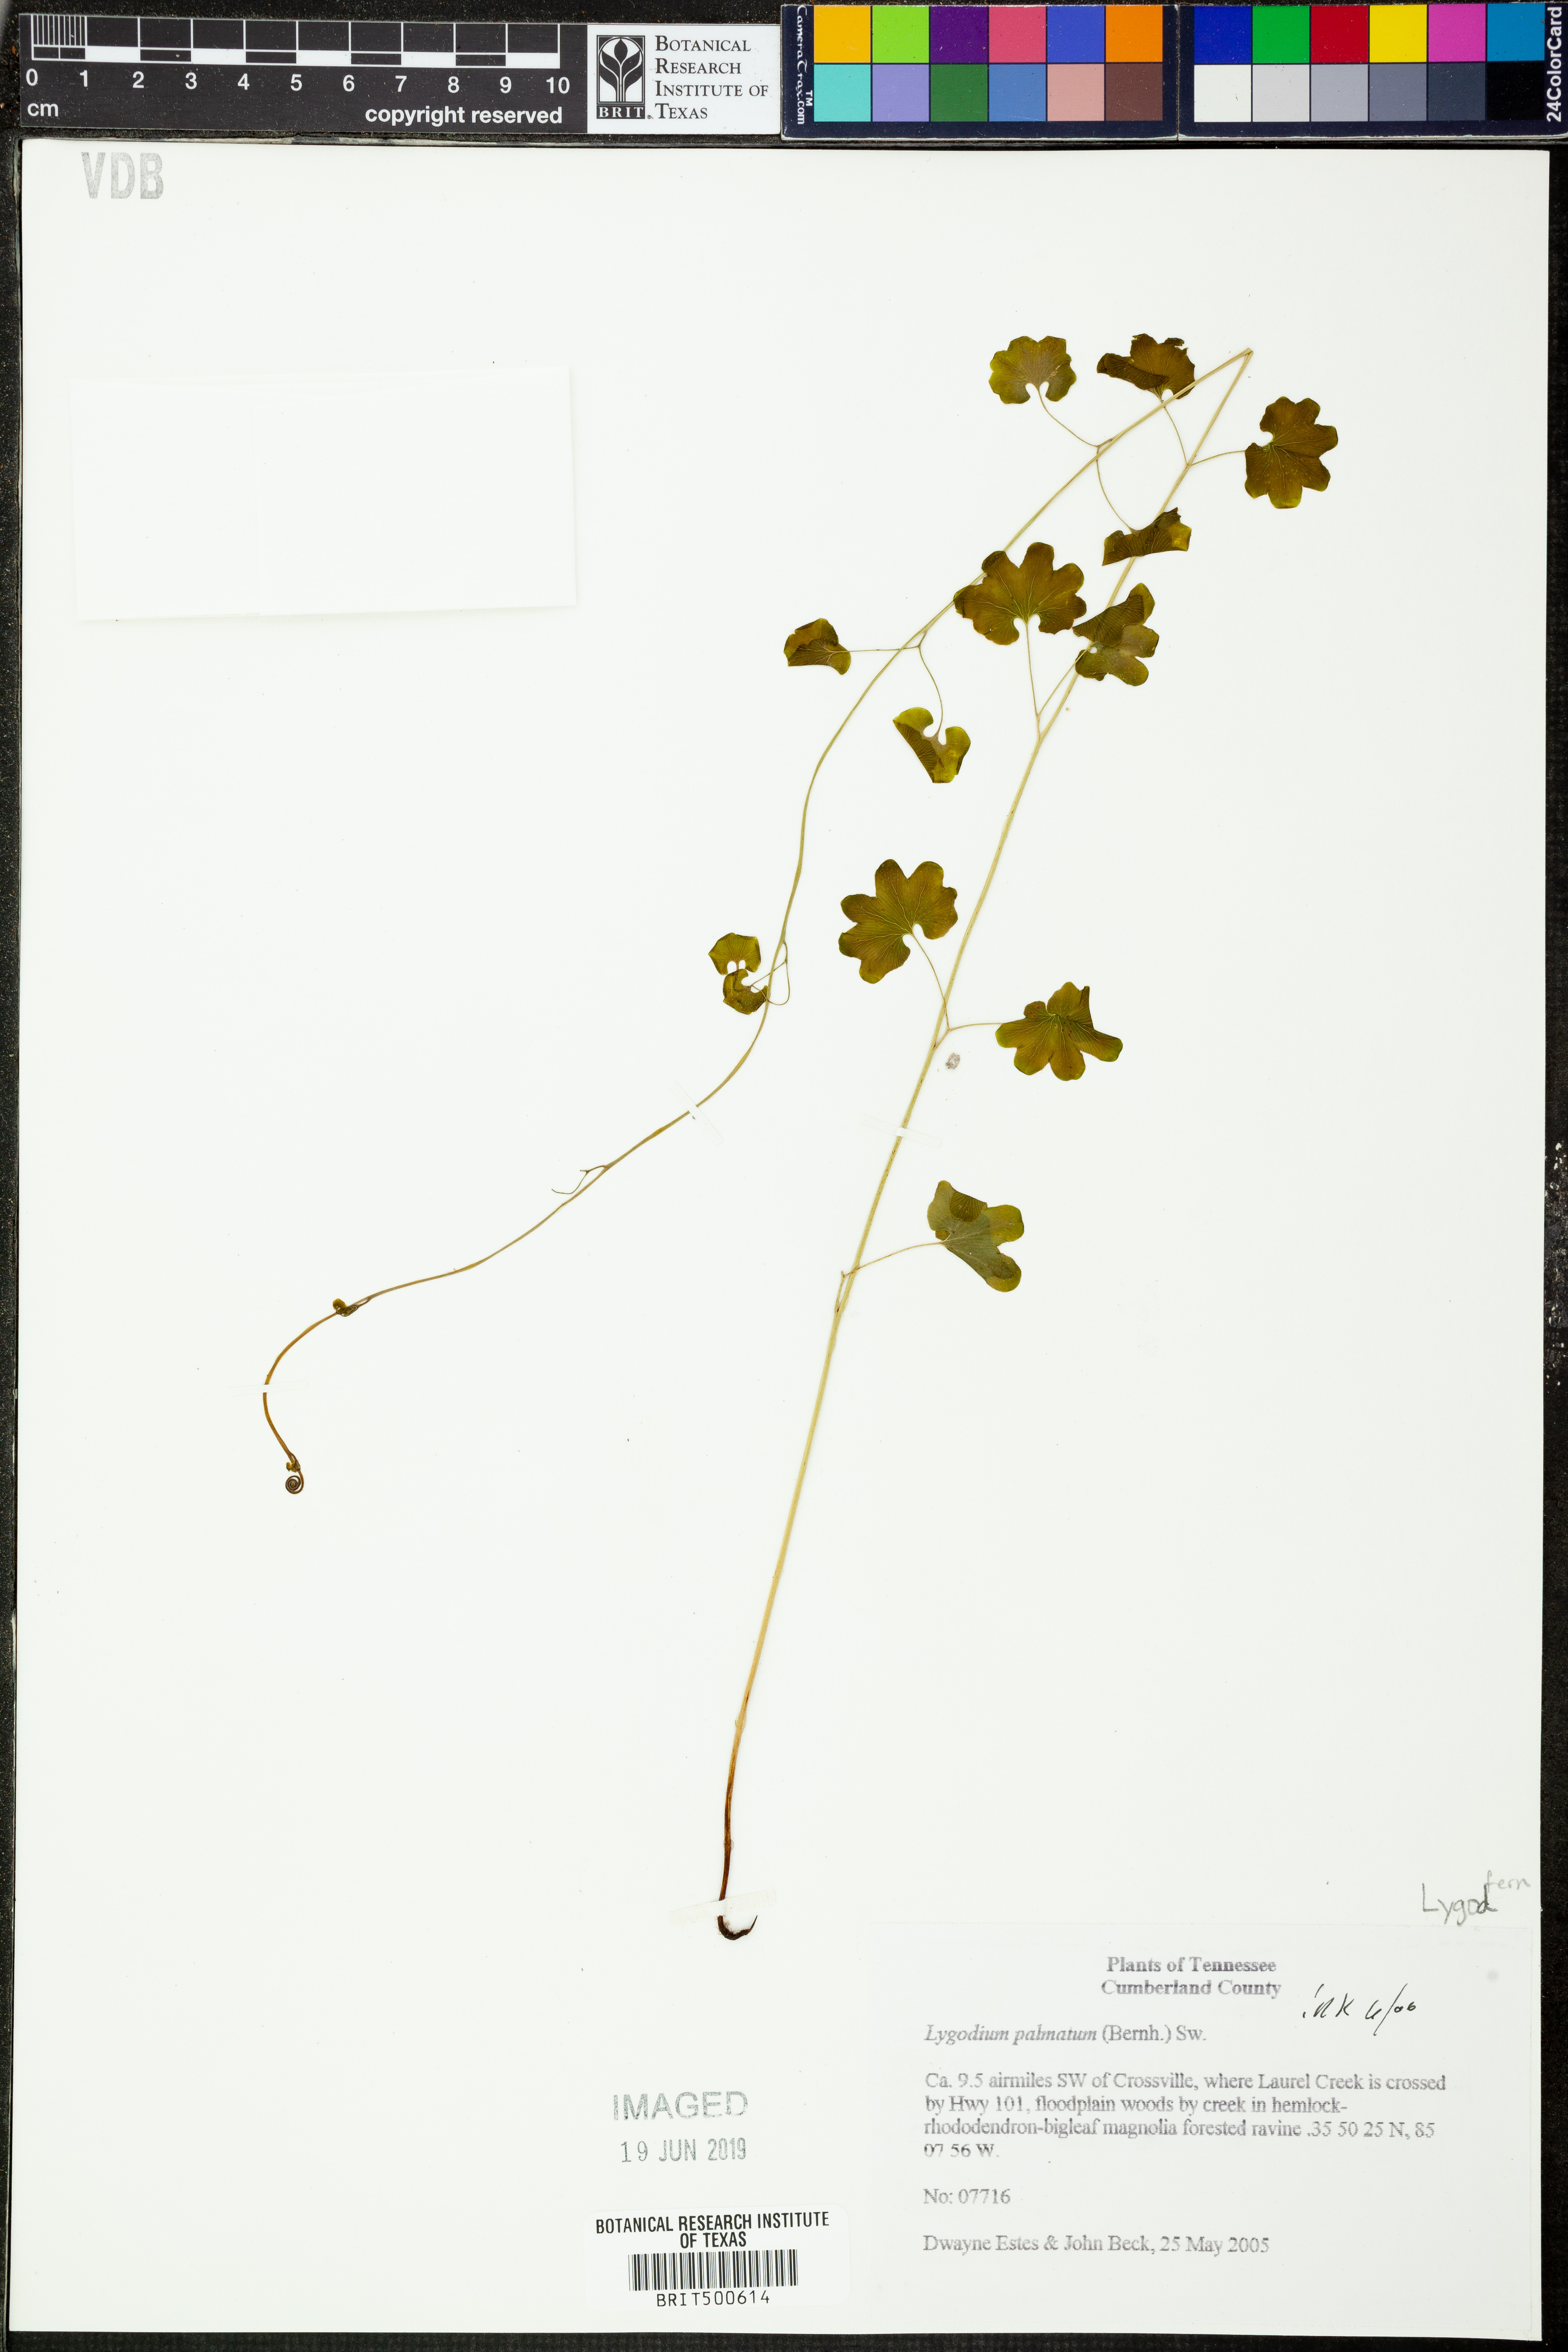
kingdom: Plantae
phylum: Tracheophyta
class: Polypodiopsida
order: Schizaeales
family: Lygodiaceae
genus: Lygodium
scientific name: Lygodium palmatum
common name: American climbing fern
